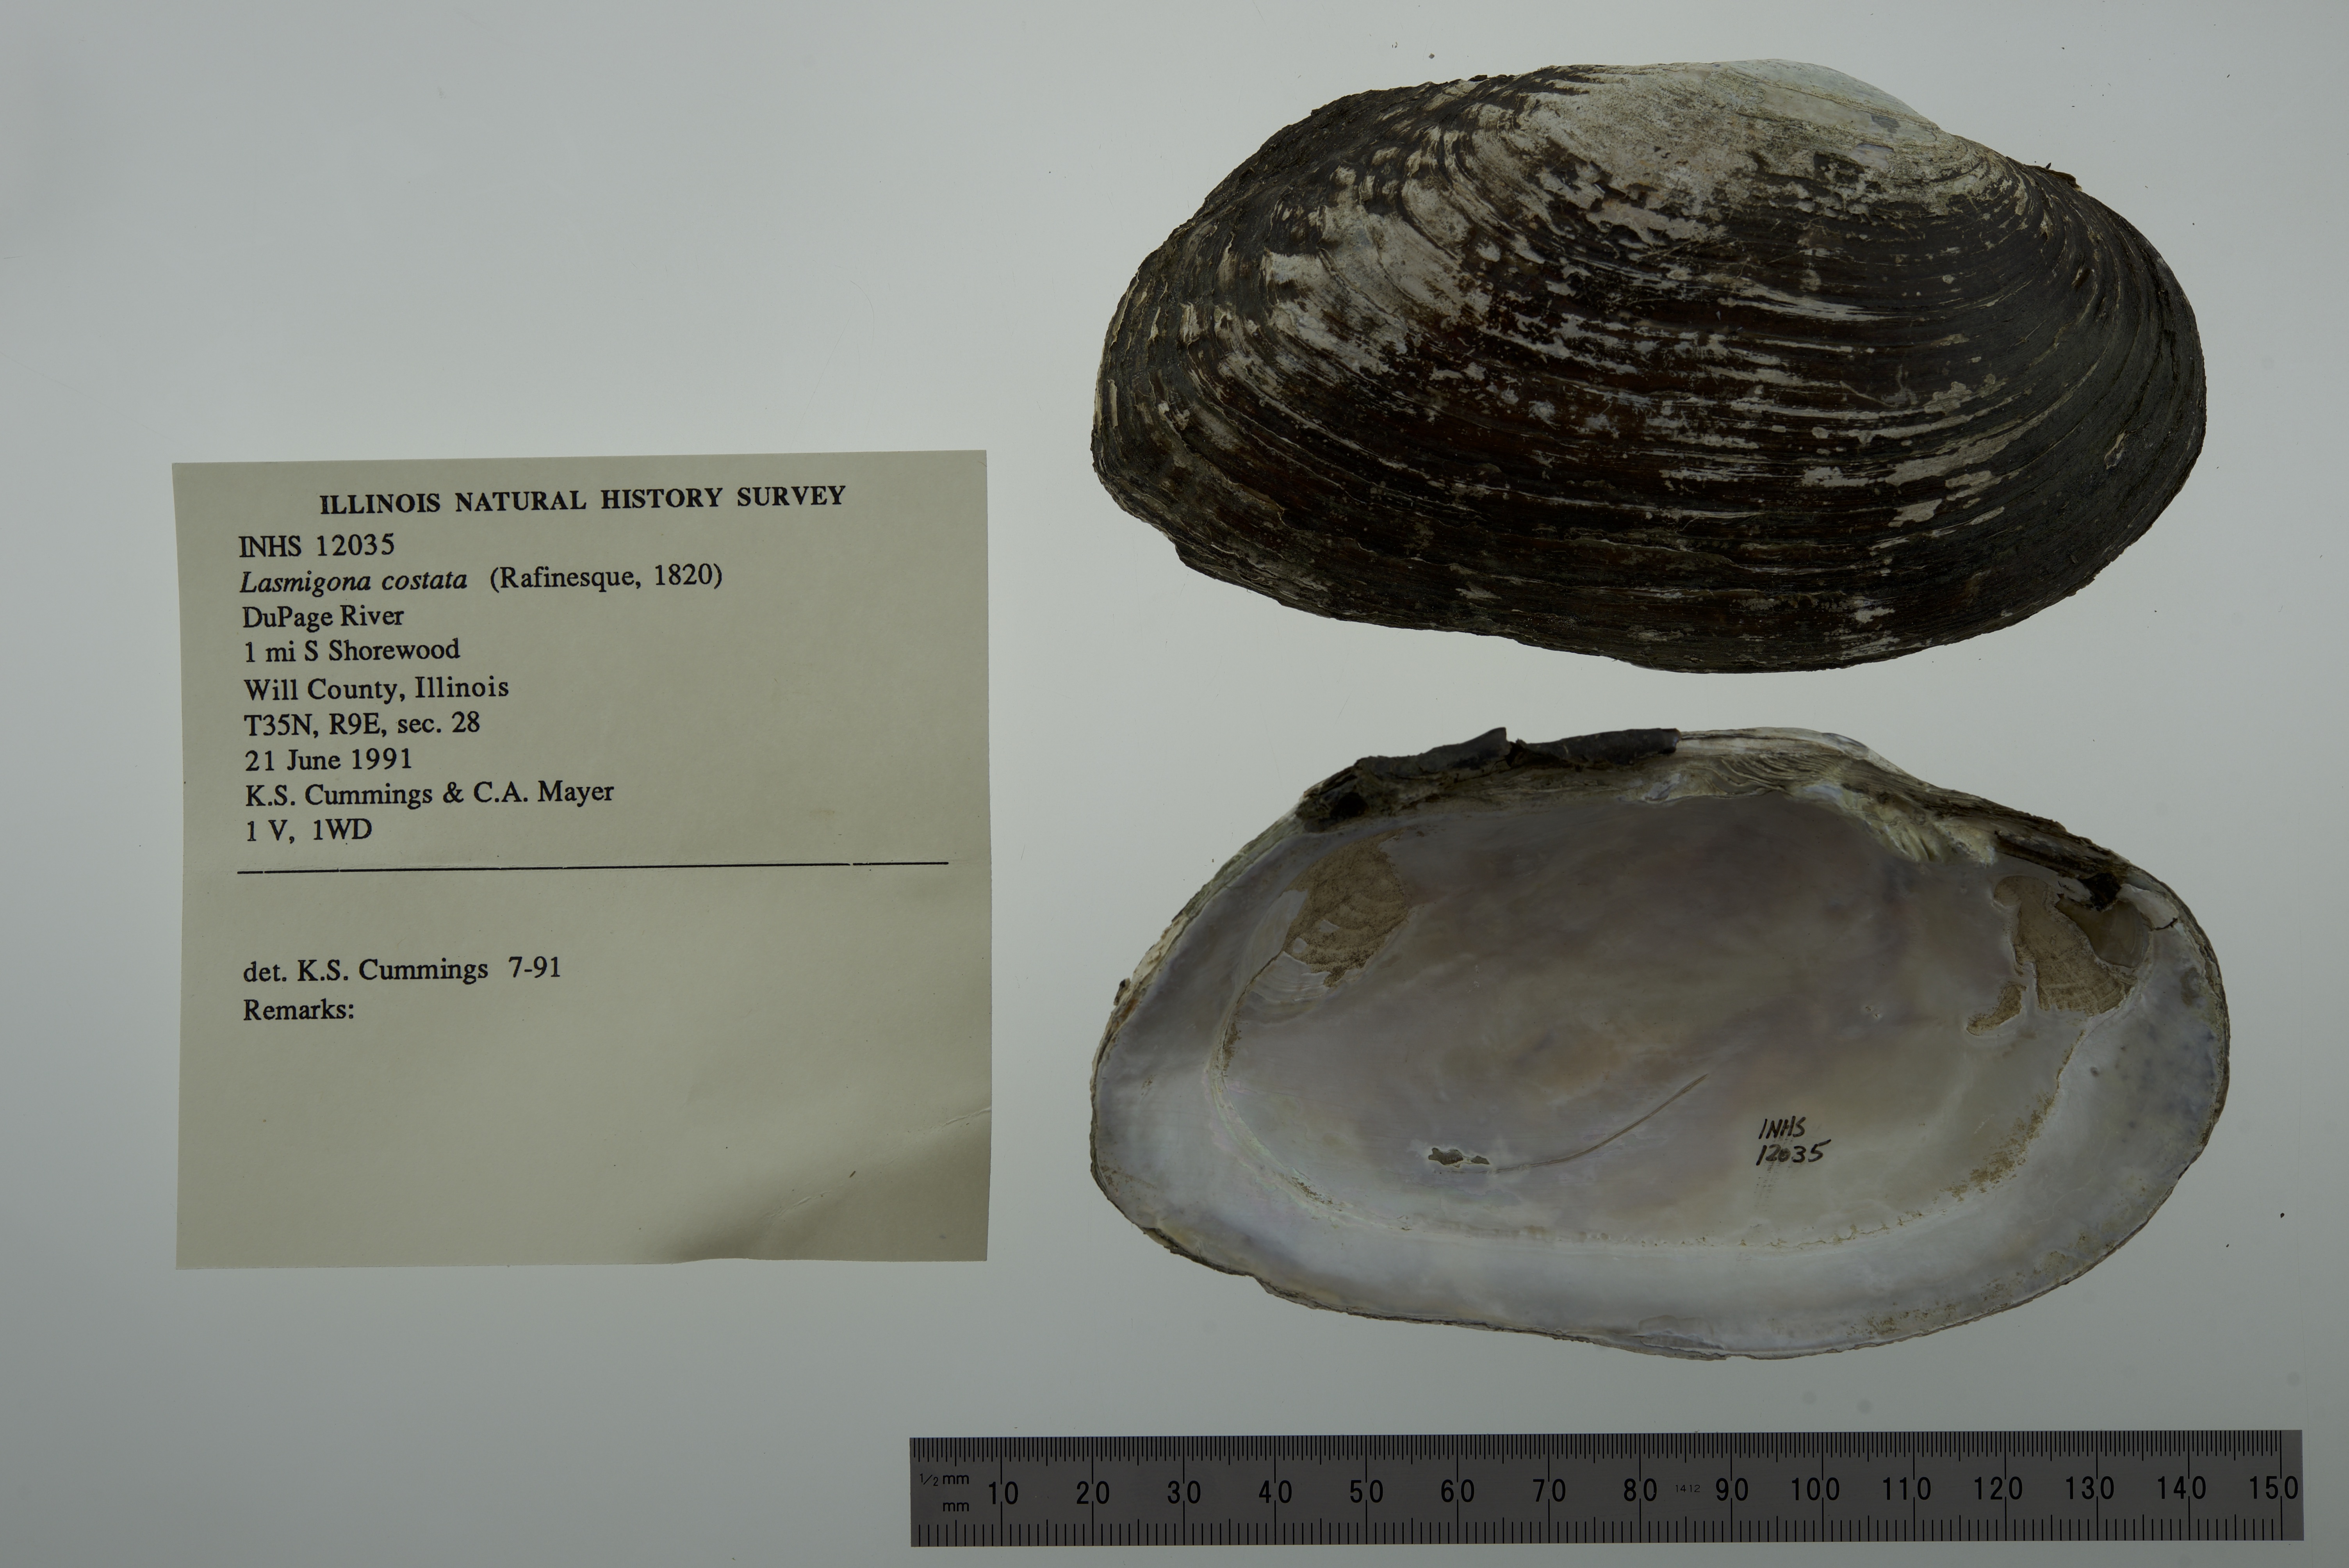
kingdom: Animalia
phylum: Mollusca
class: Bivalvia
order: Unionida
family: Unionidae
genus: Lasmigona
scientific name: Lasmigona costata
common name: Flutedshell
